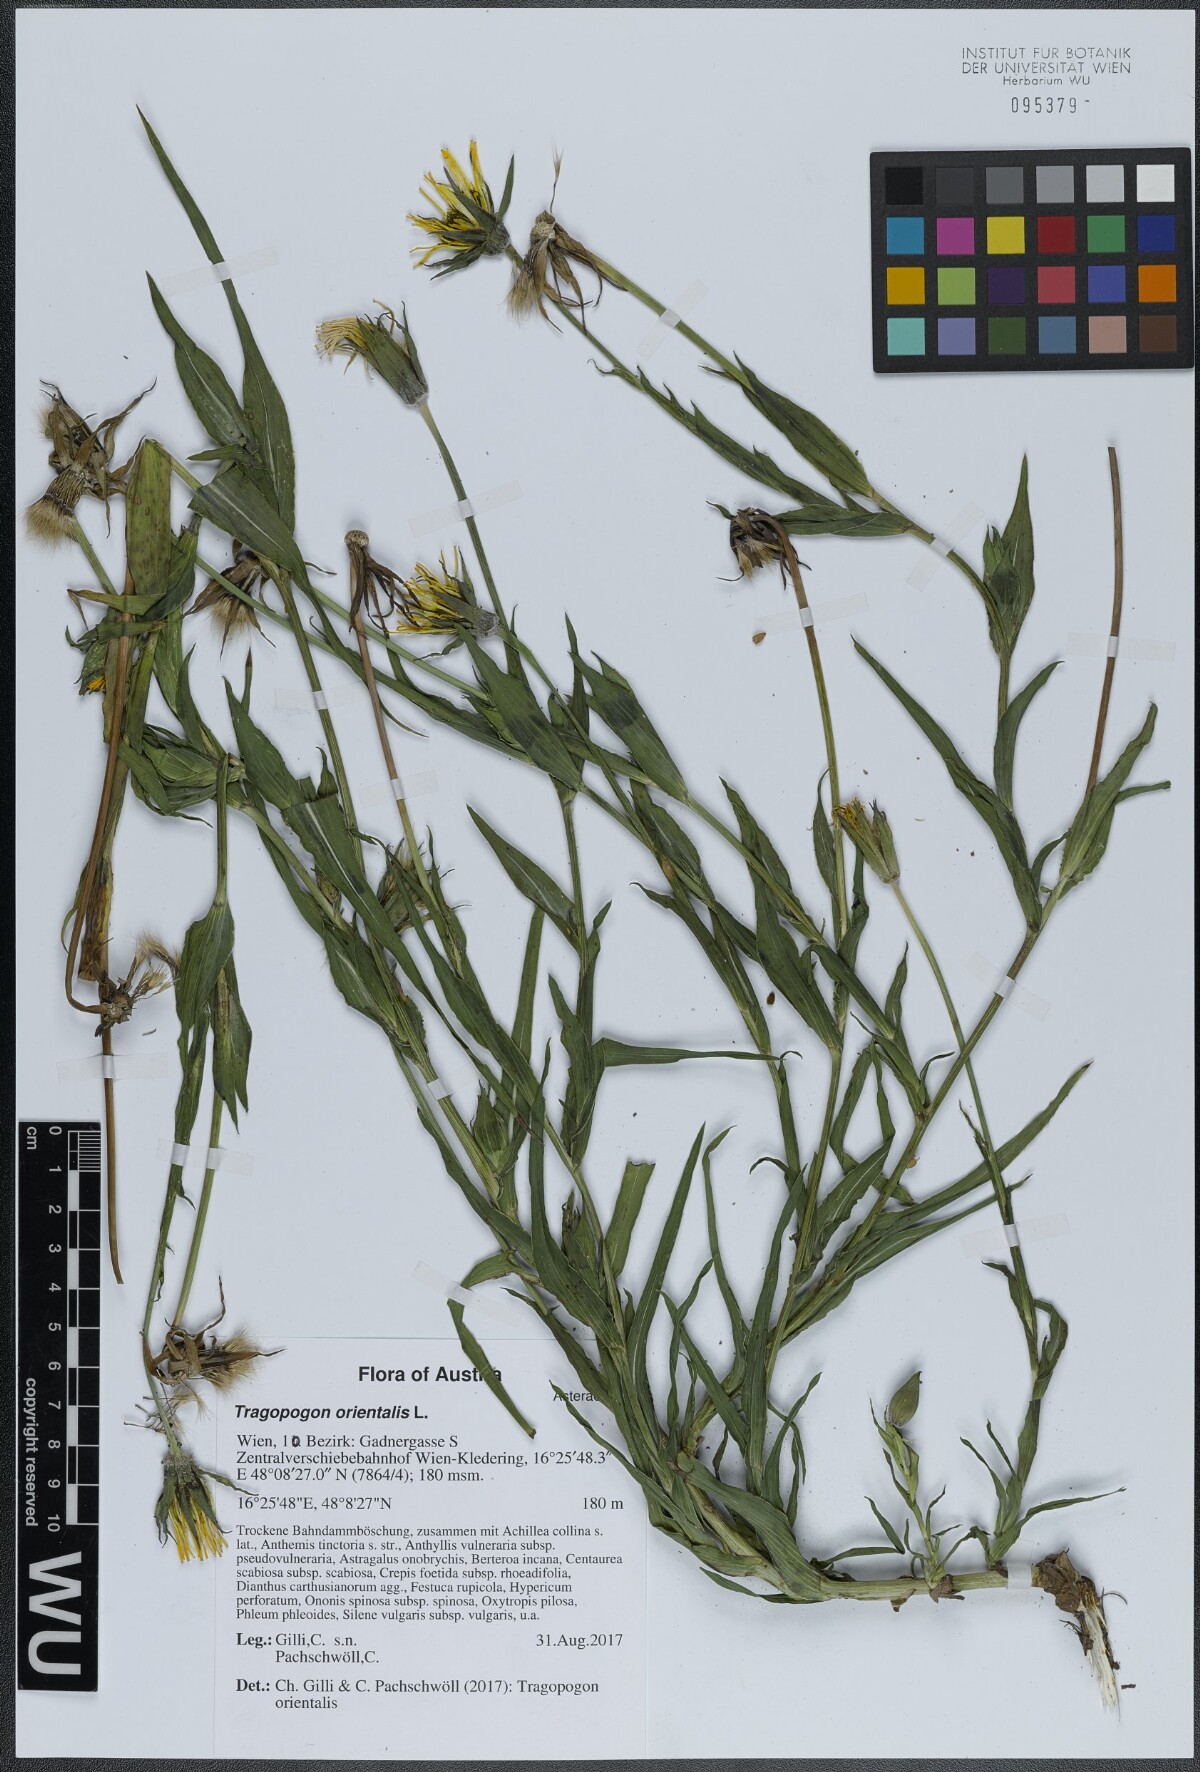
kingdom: Plantae
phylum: Tracheophyta
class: Magnoliopsida
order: Asterales
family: Asteraceae
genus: Tragopogon
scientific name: Tragopogon orientalis
